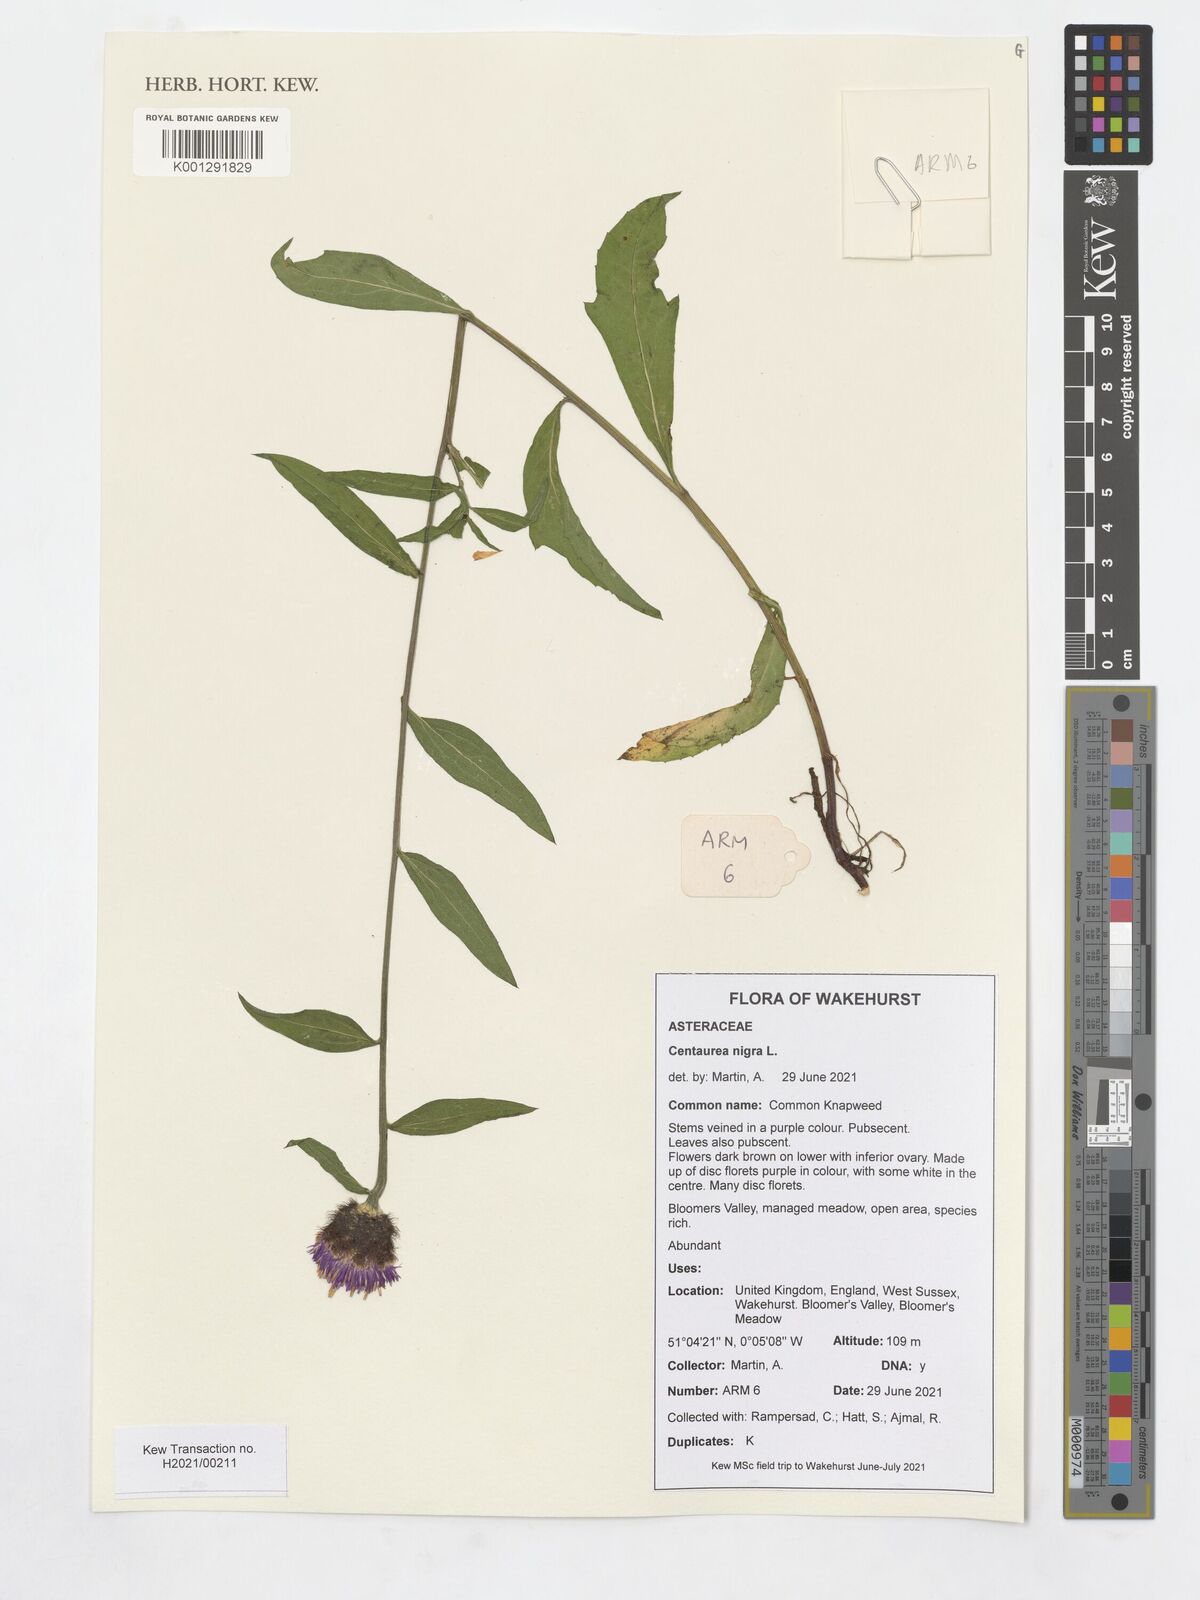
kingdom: Plantae
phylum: Tracheophyta
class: Magnoliopsida
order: Asterales
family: Asteraceae
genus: Centaurea
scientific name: Centaurea nigra
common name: Lesser knapweed
